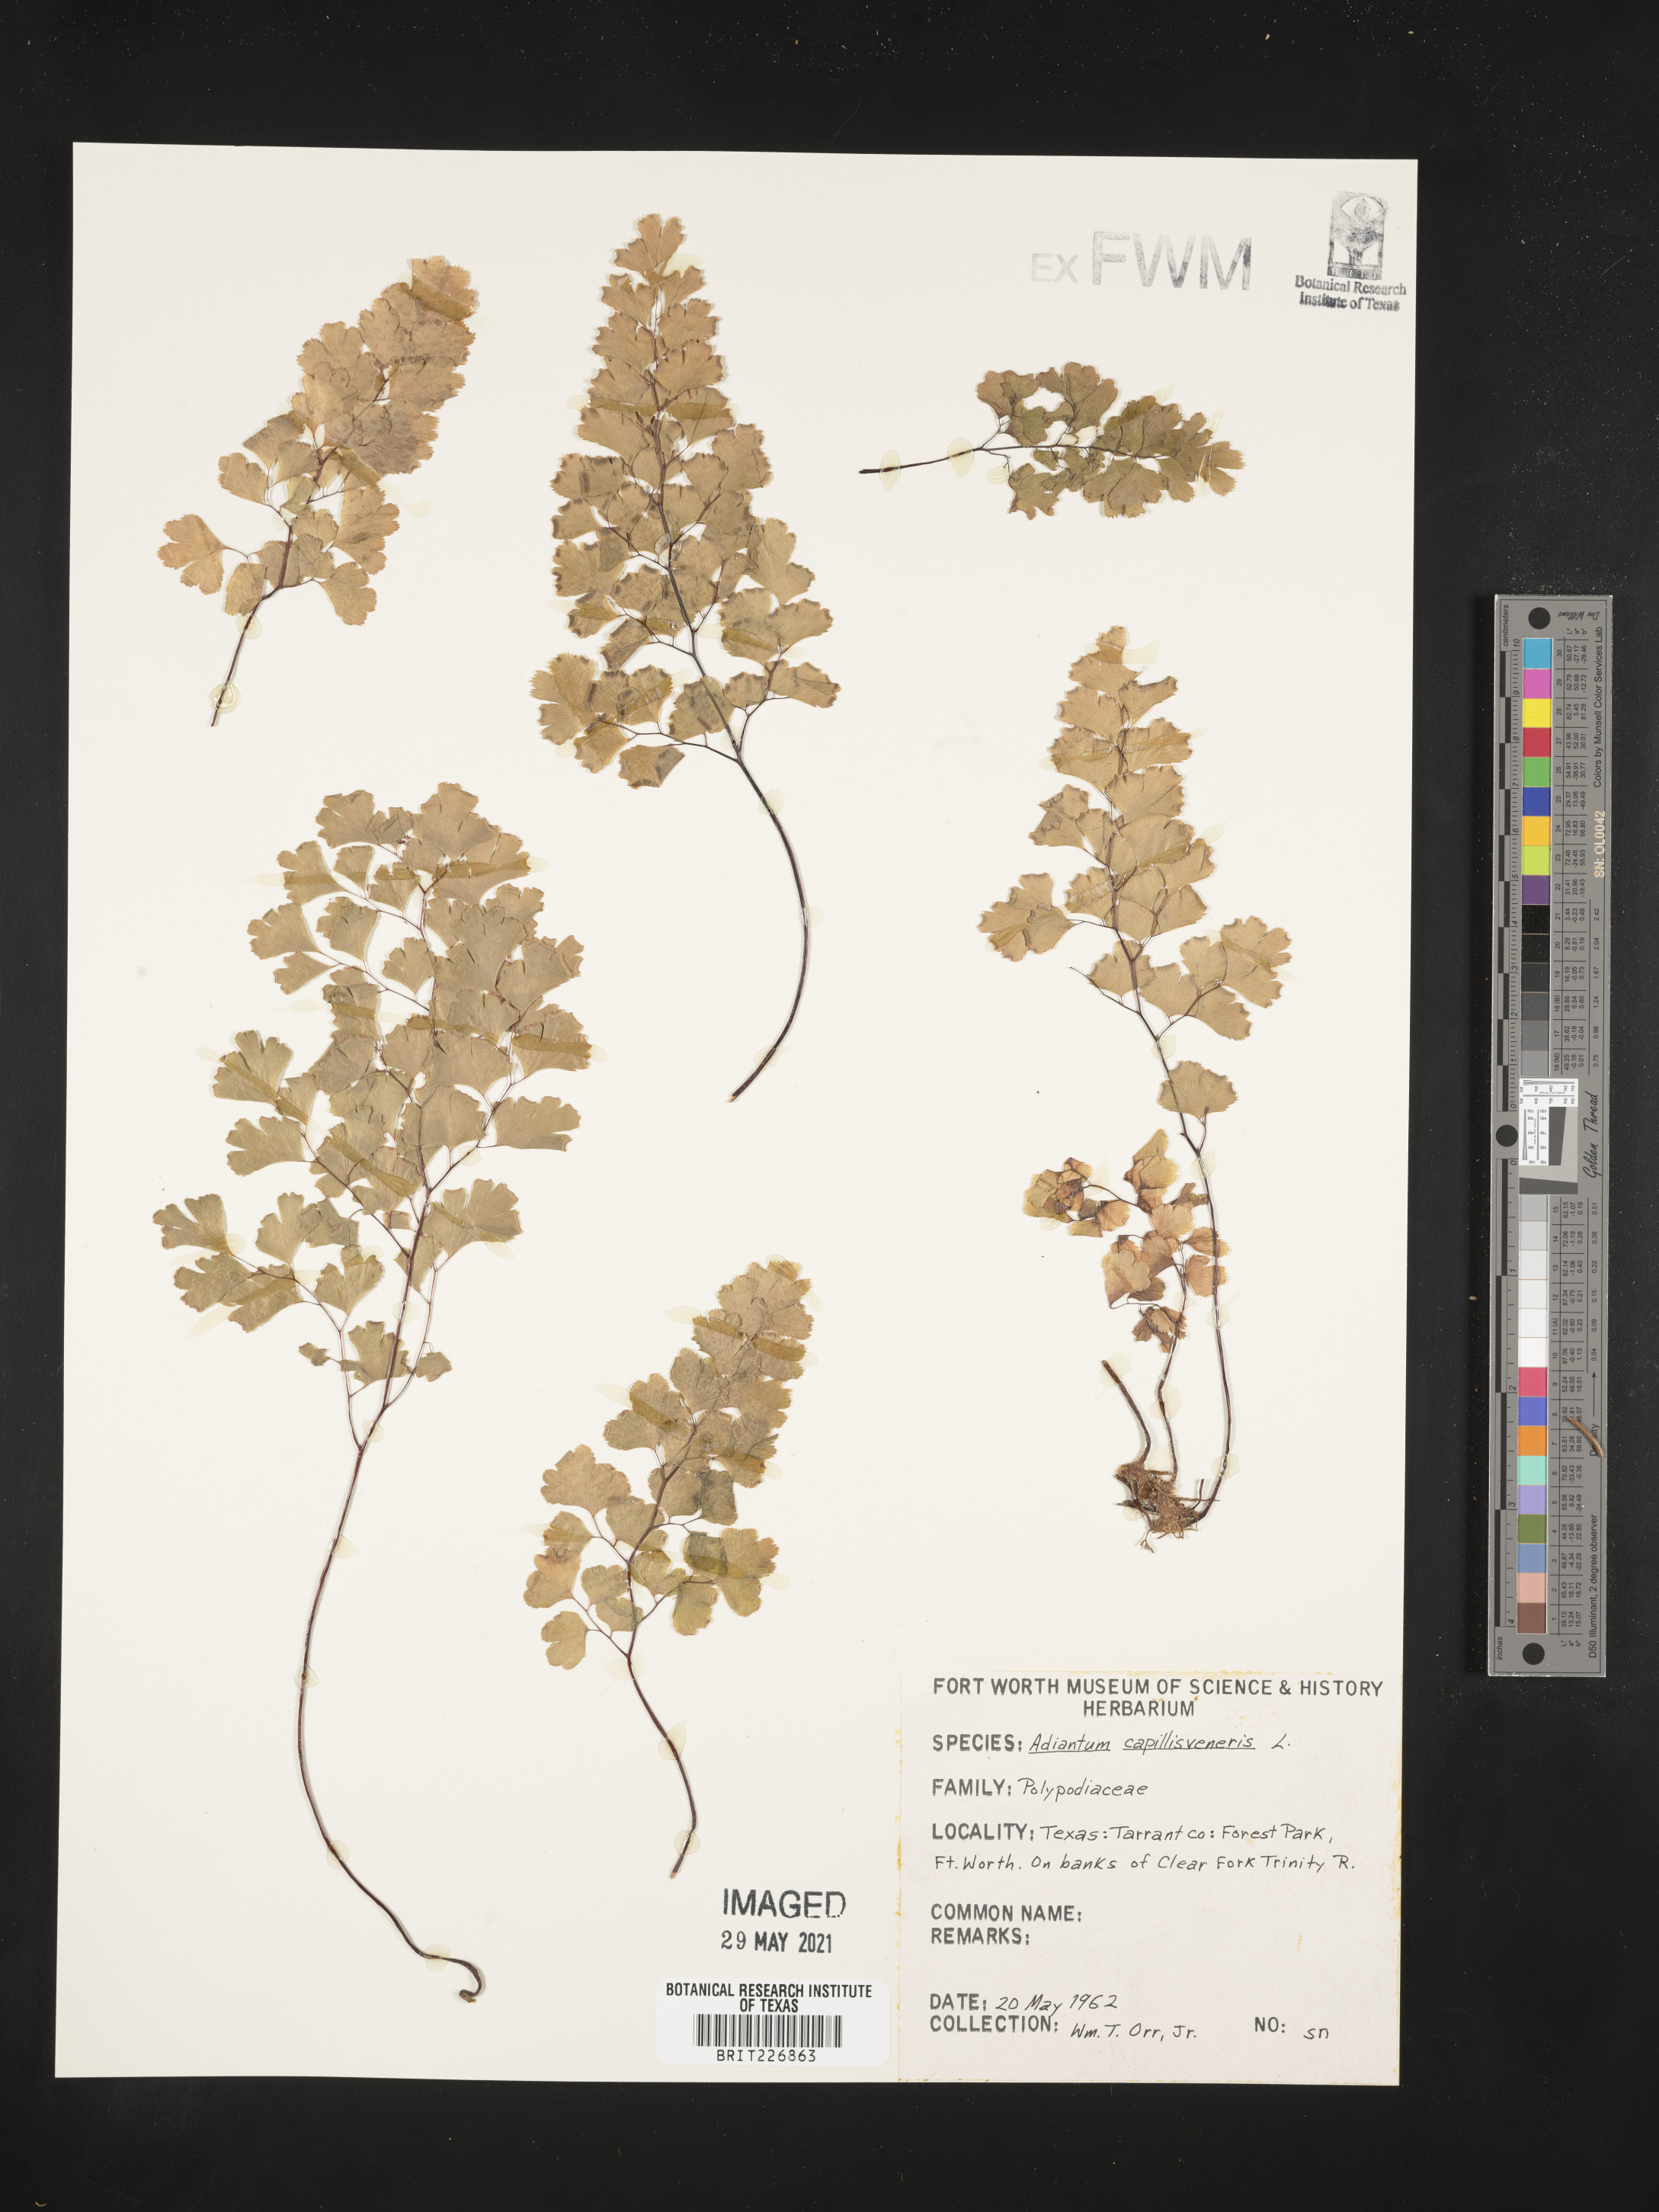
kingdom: Plantae
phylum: Tracheophyta
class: Polypodiopsida
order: Polypodiales
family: Pteridaceae
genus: Adiantum
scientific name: Adiantum capillus-veneris
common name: Maidenhair fern
